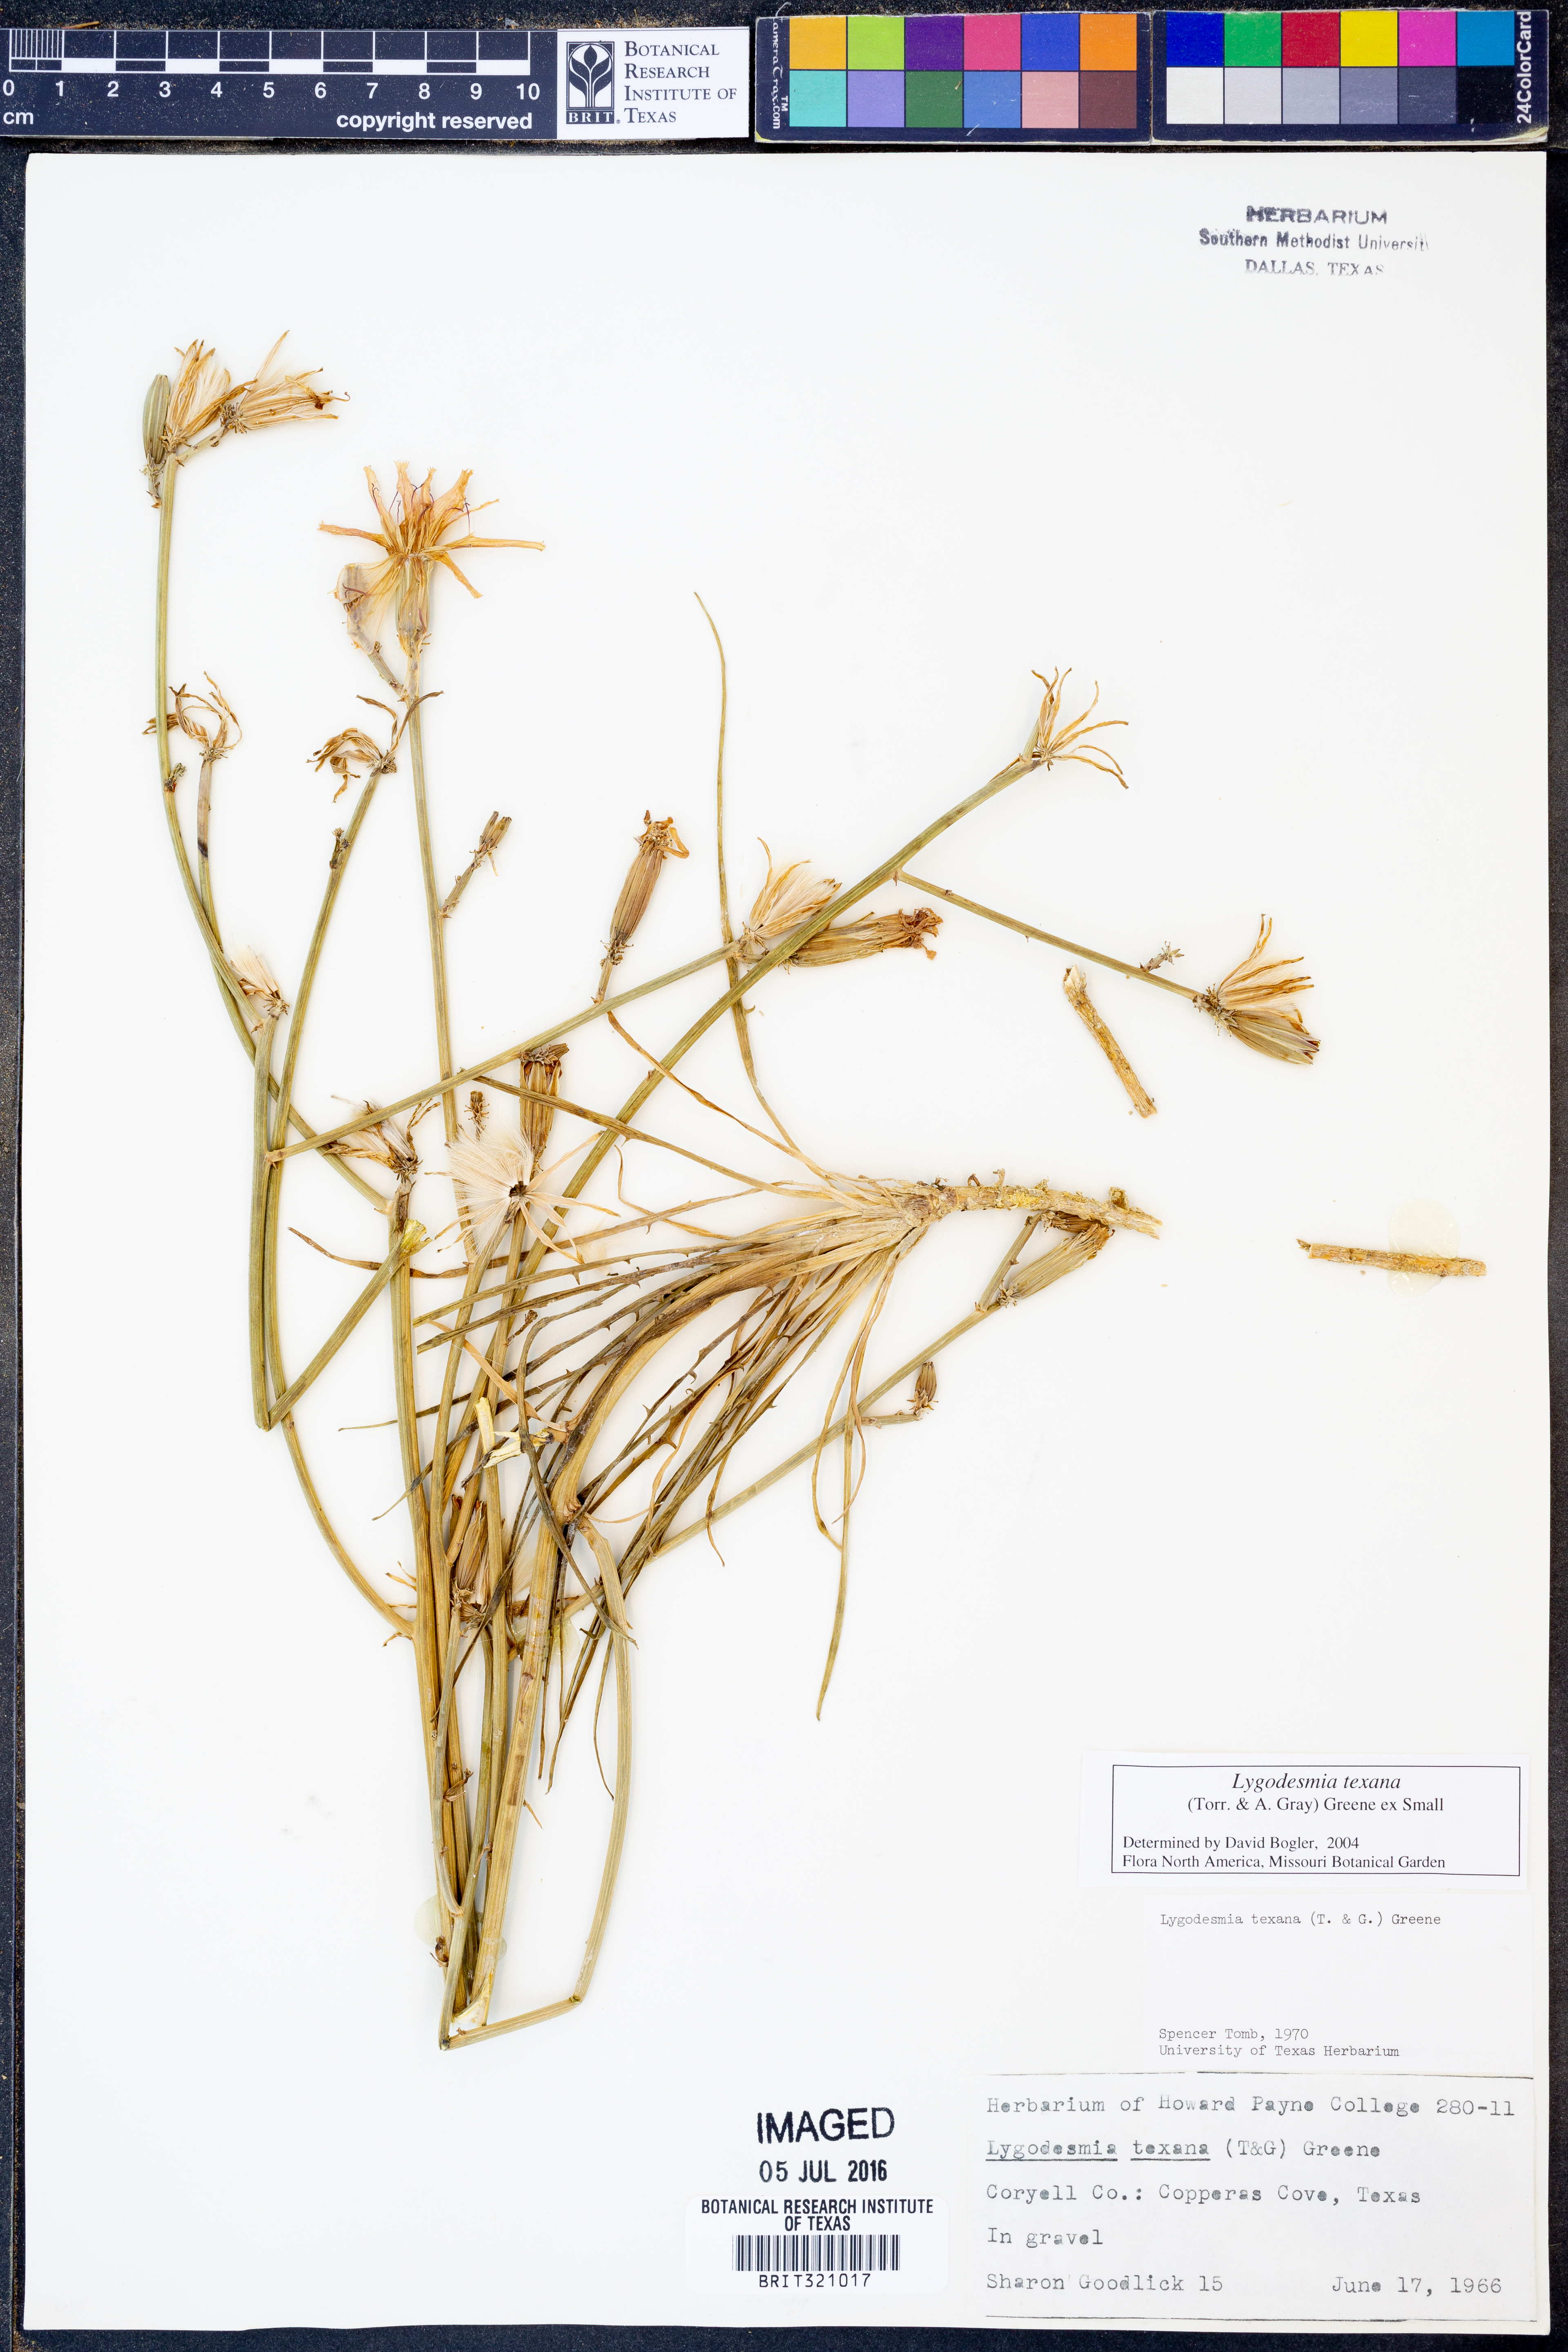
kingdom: Plantae
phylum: Tracheophyta
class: Magnoliopsida
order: Asterales
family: Asteraceae
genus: Lygodesmia
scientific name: Lygodesmia texana
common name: Texas skeleton-plant
